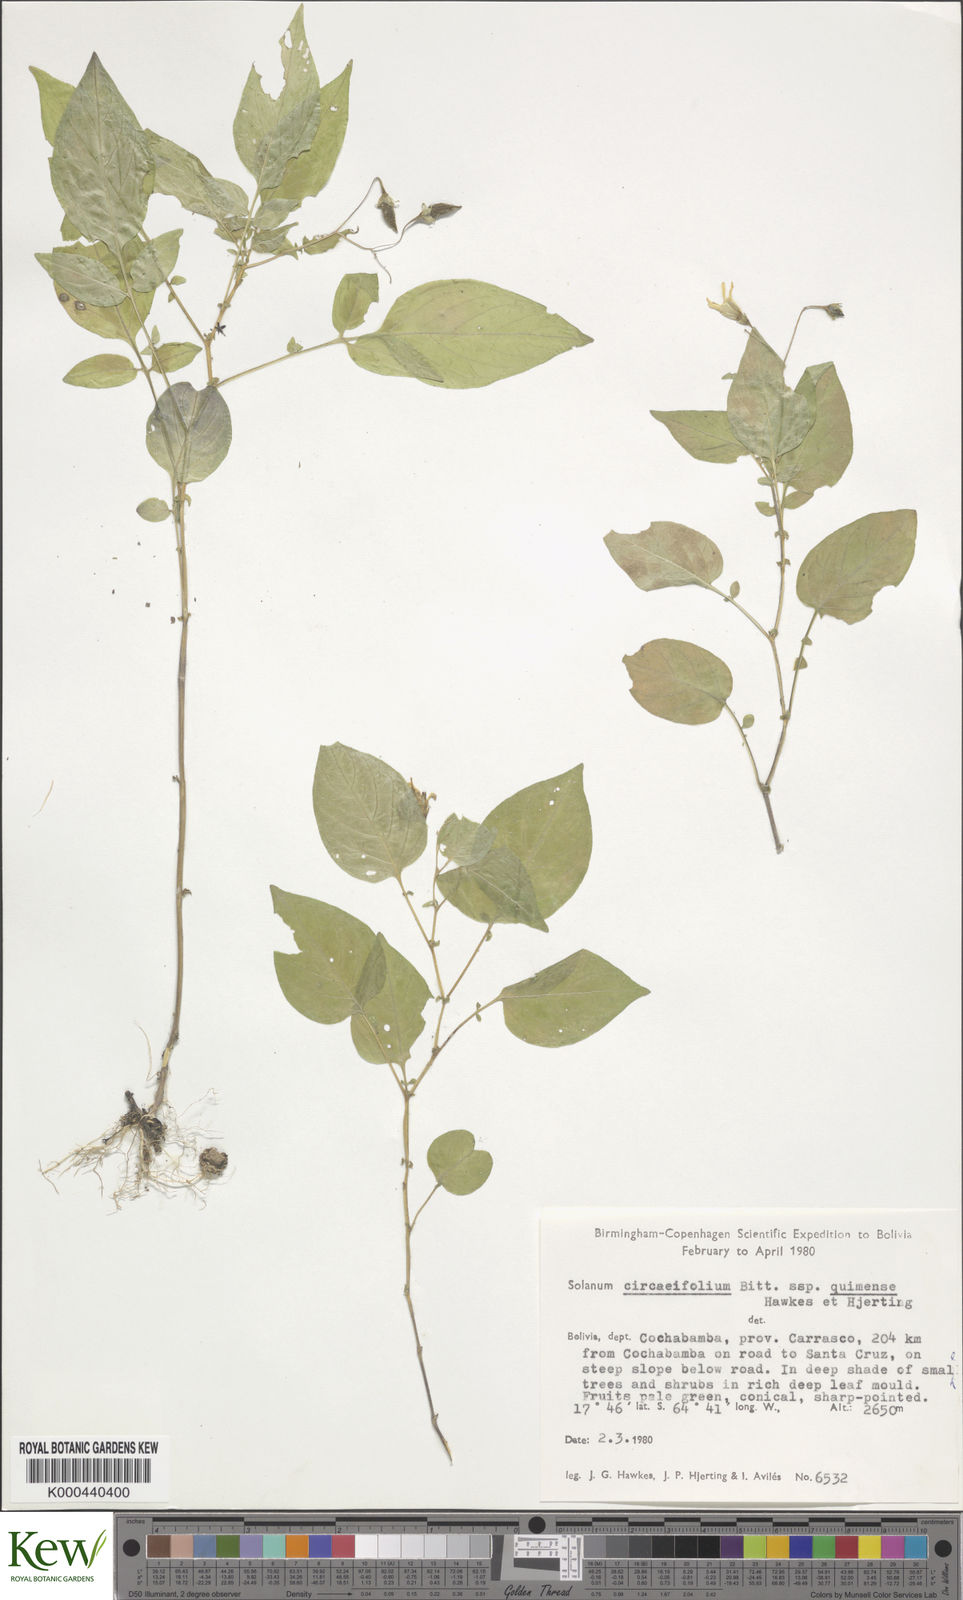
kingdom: Plantae
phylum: Tracheophyta
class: Magnoliopsida
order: Solanales
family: Solanaceae
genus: Solanum
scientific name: Solanum stipuloideum
